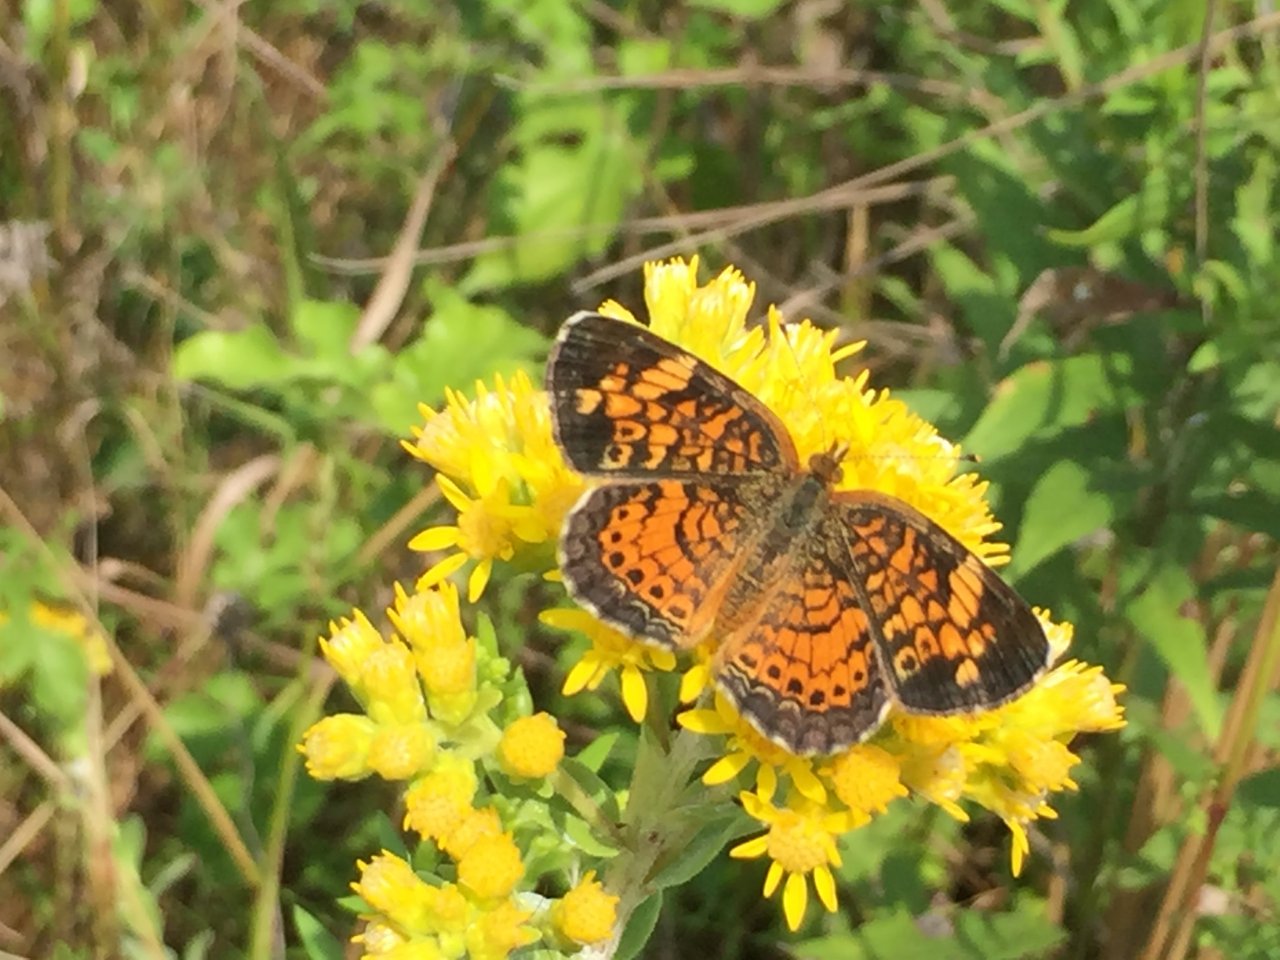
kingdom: Animalia
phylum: Arthropoda
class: Insecta
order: Lepidoptera
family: Nymphalidae
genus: Phyciodes
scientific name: Phyciodes tharos
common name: Pearl Crescent
